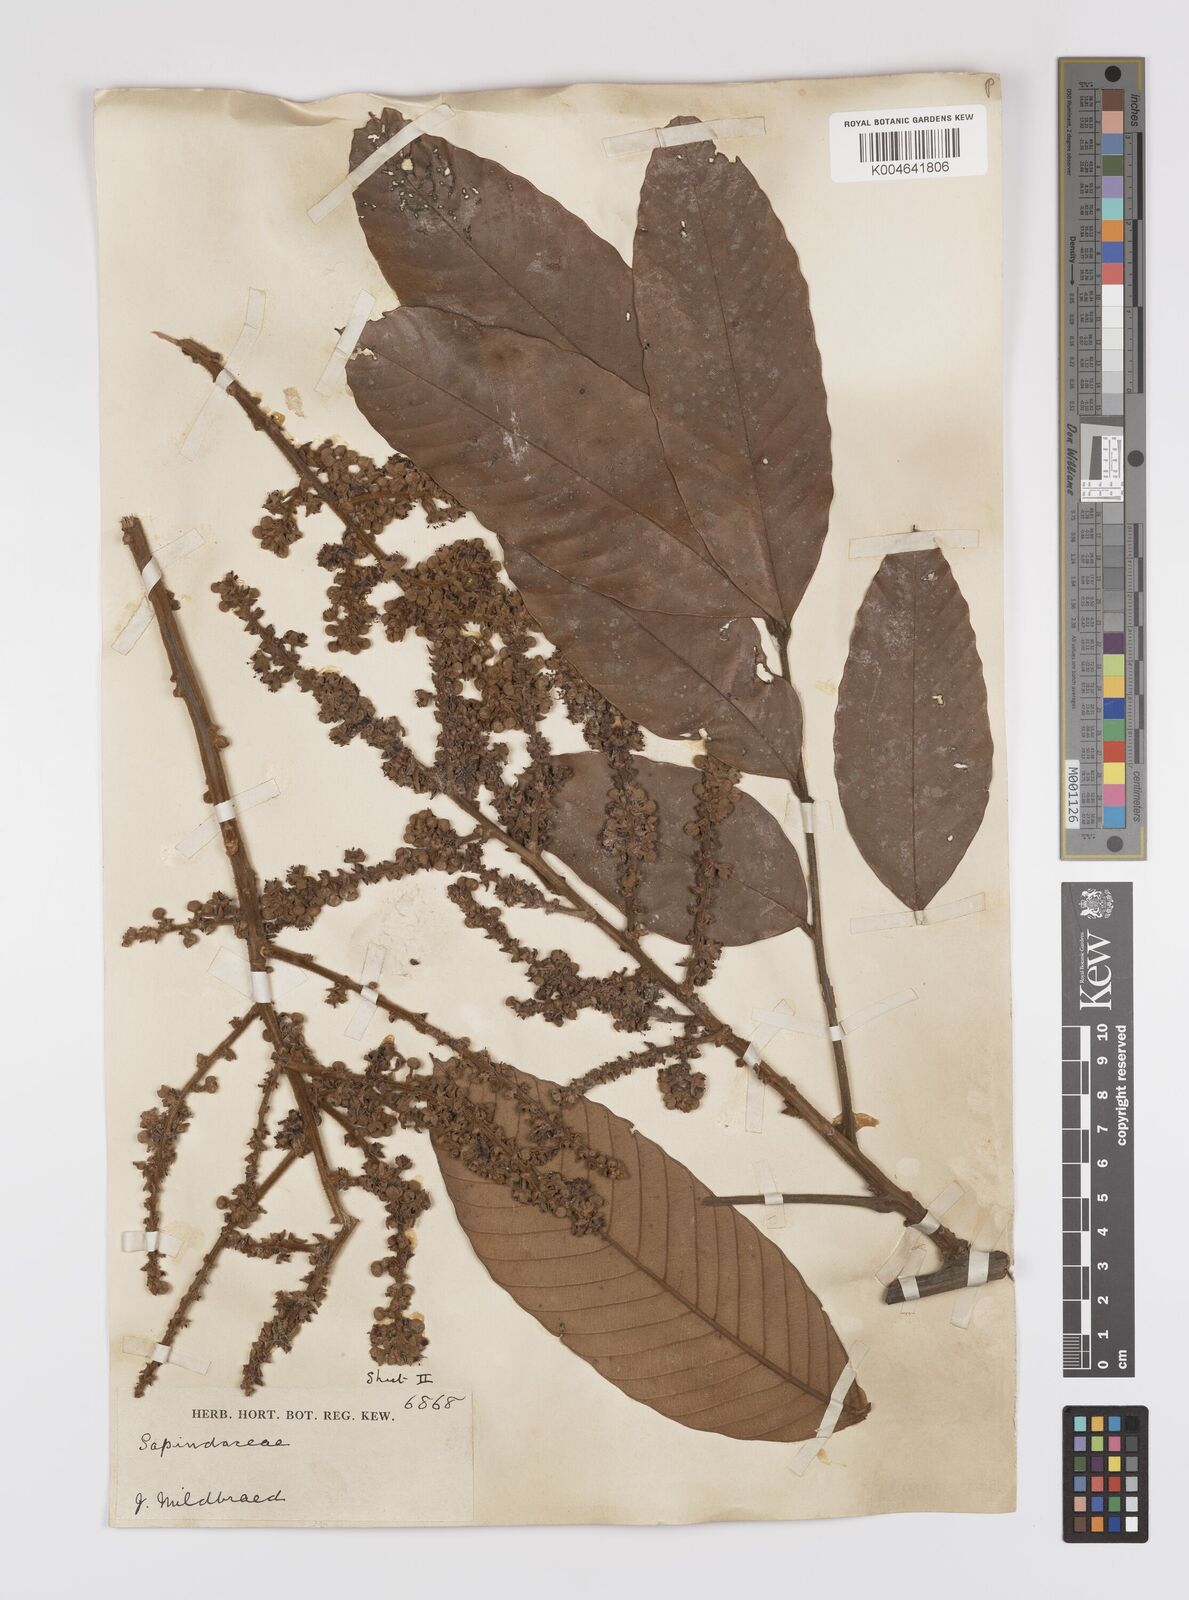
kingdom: Plantae
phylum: Tracheophyta
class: Magnoliopsida
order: Sapindales
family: Sapindaceae
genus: Lychnodiscus
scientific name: Lychnodiscus
